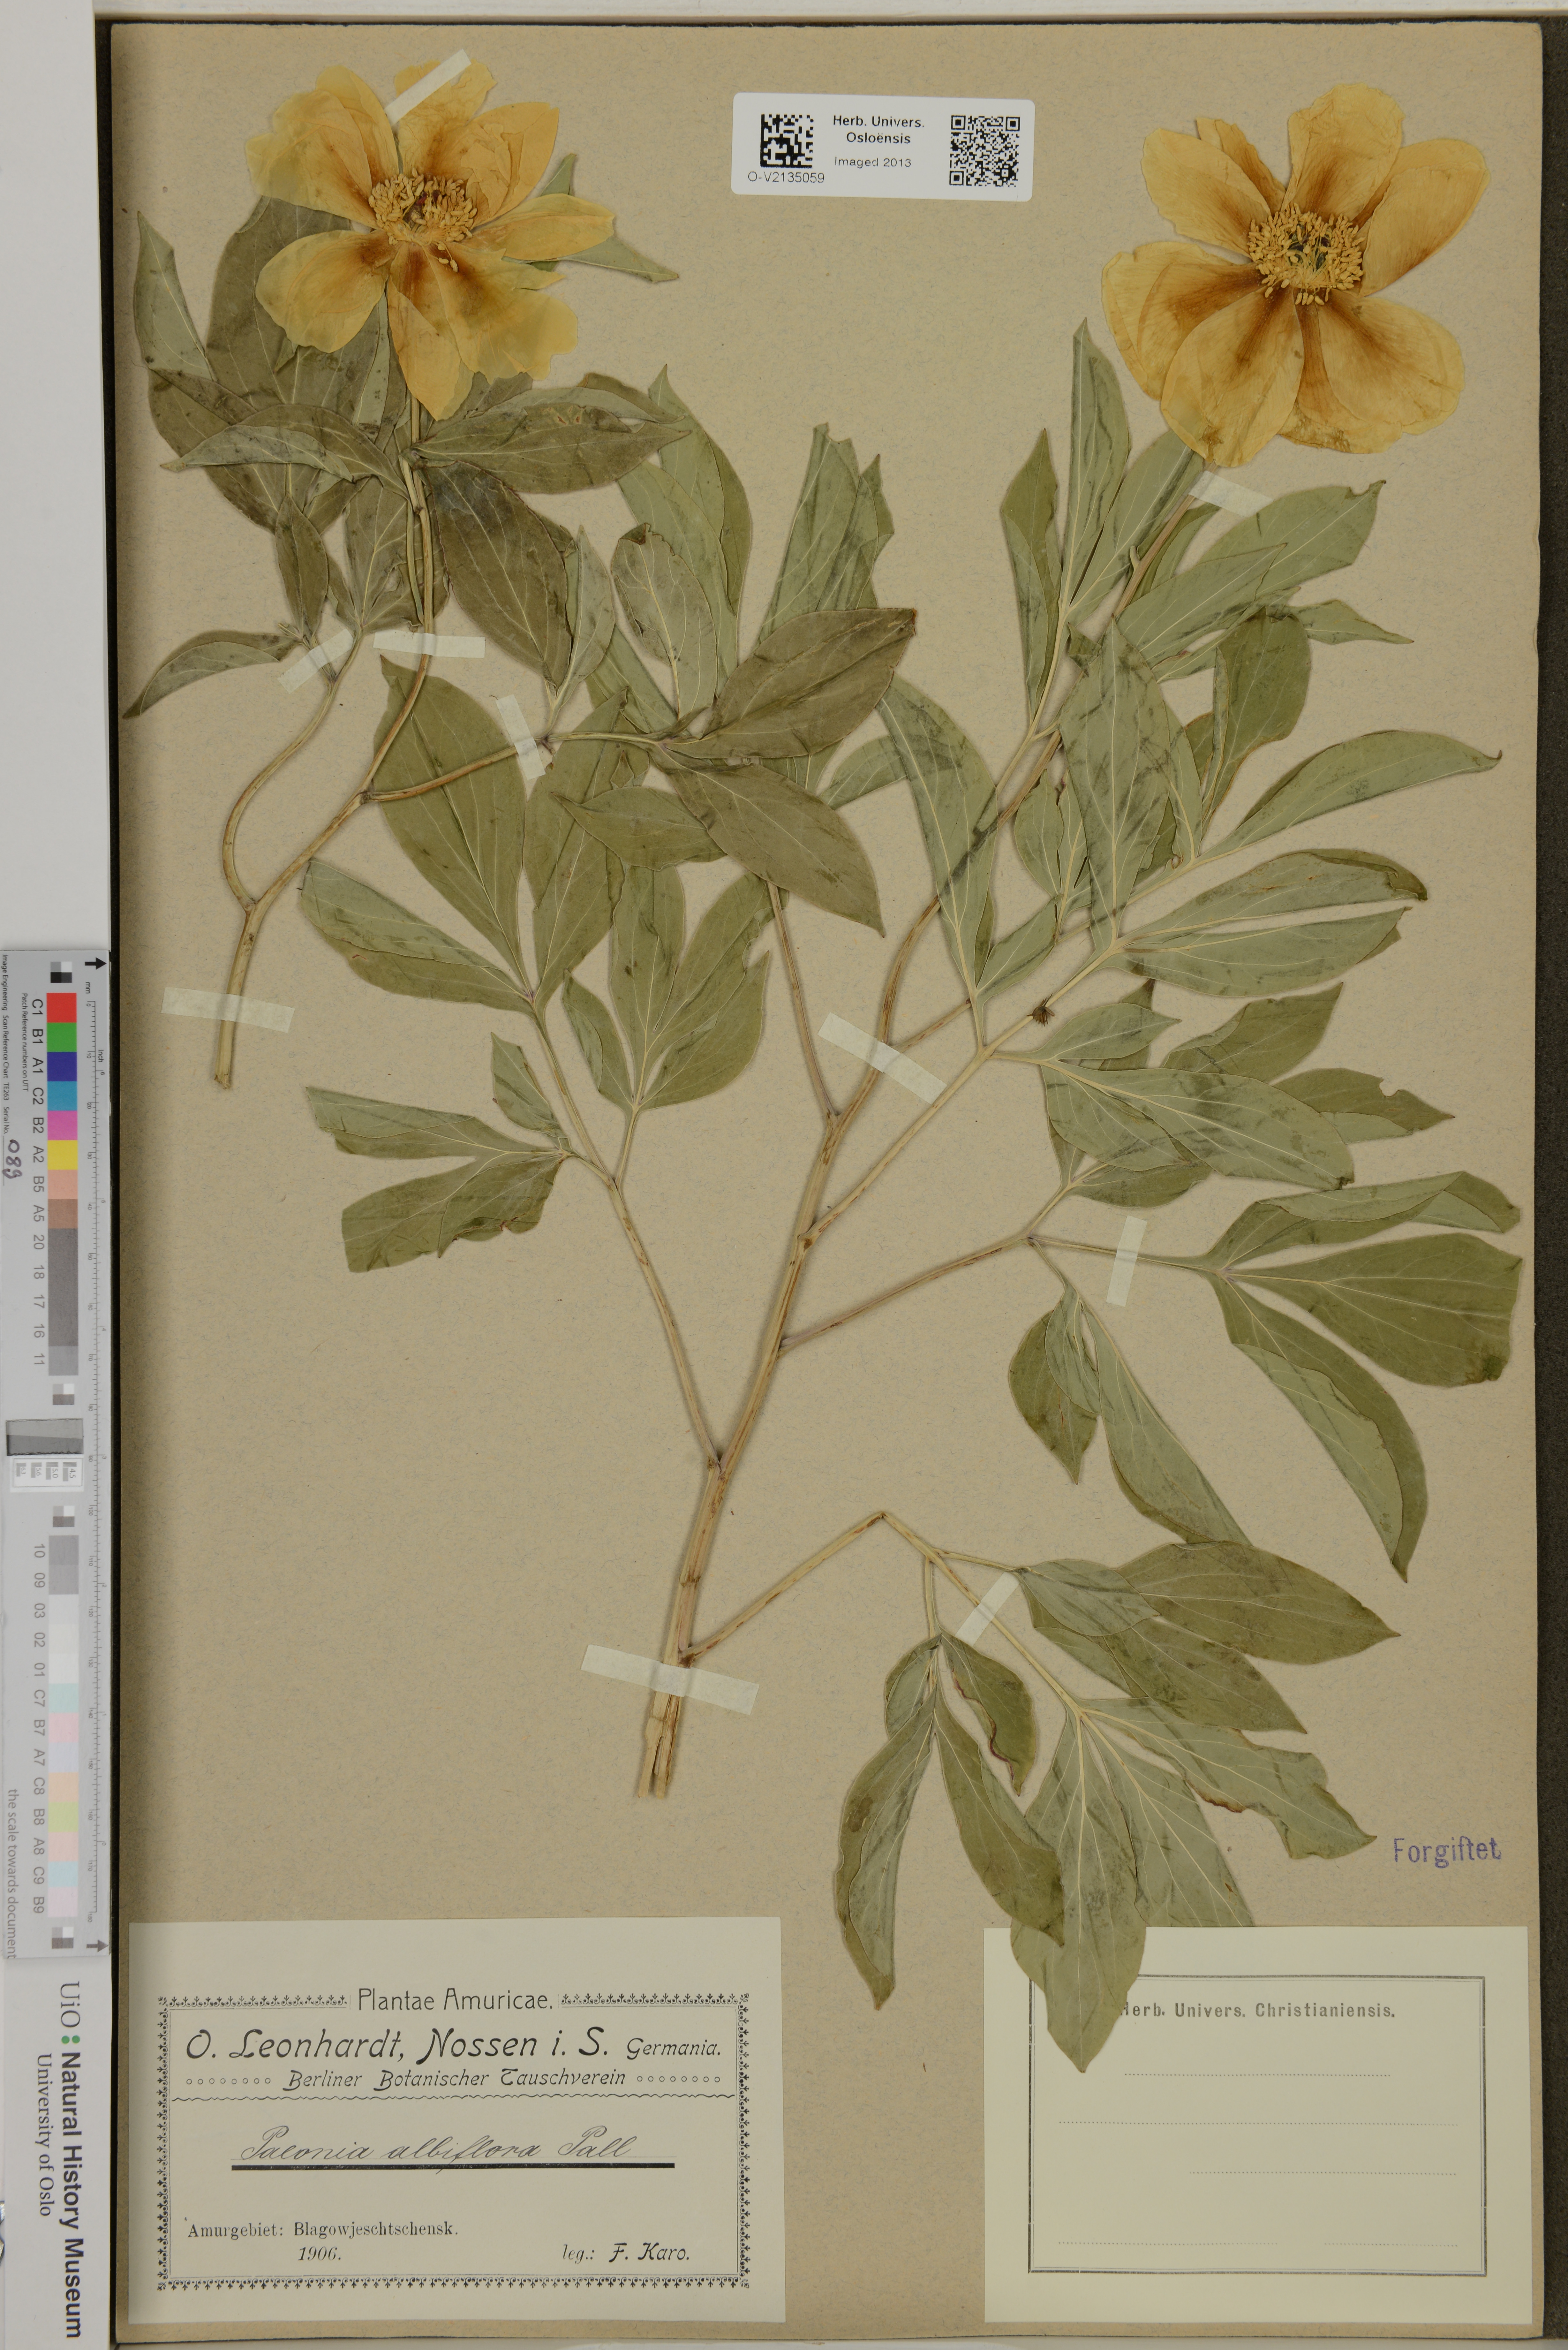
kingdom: Plantae
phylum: Tracheophyta
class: Magnoliopsida
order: Saxifragales
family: Paeoniaceae
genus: Paeonia
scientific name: Paeonia lactiflora
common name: Chinese peony
